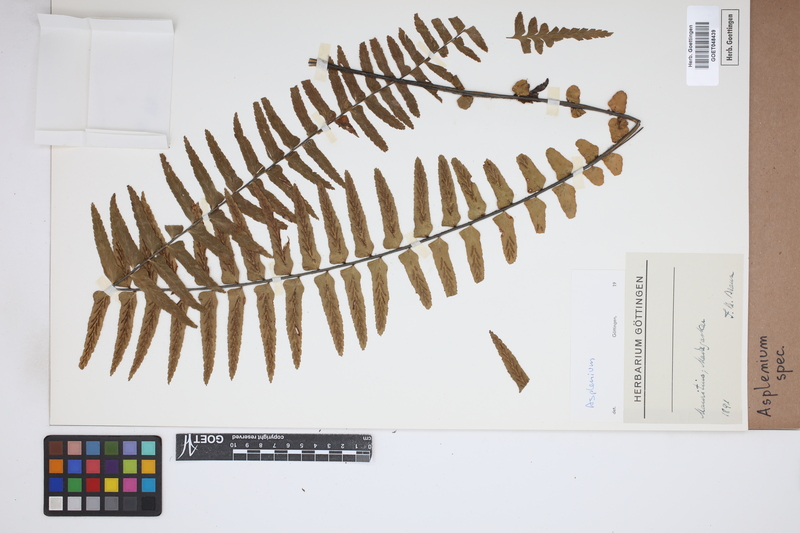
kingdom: Plantae
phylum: Tracheophyta
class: Polypodiopsida
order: Polypodiales
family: Aspleniaceae
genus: Asplenium
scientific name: Asplenium
